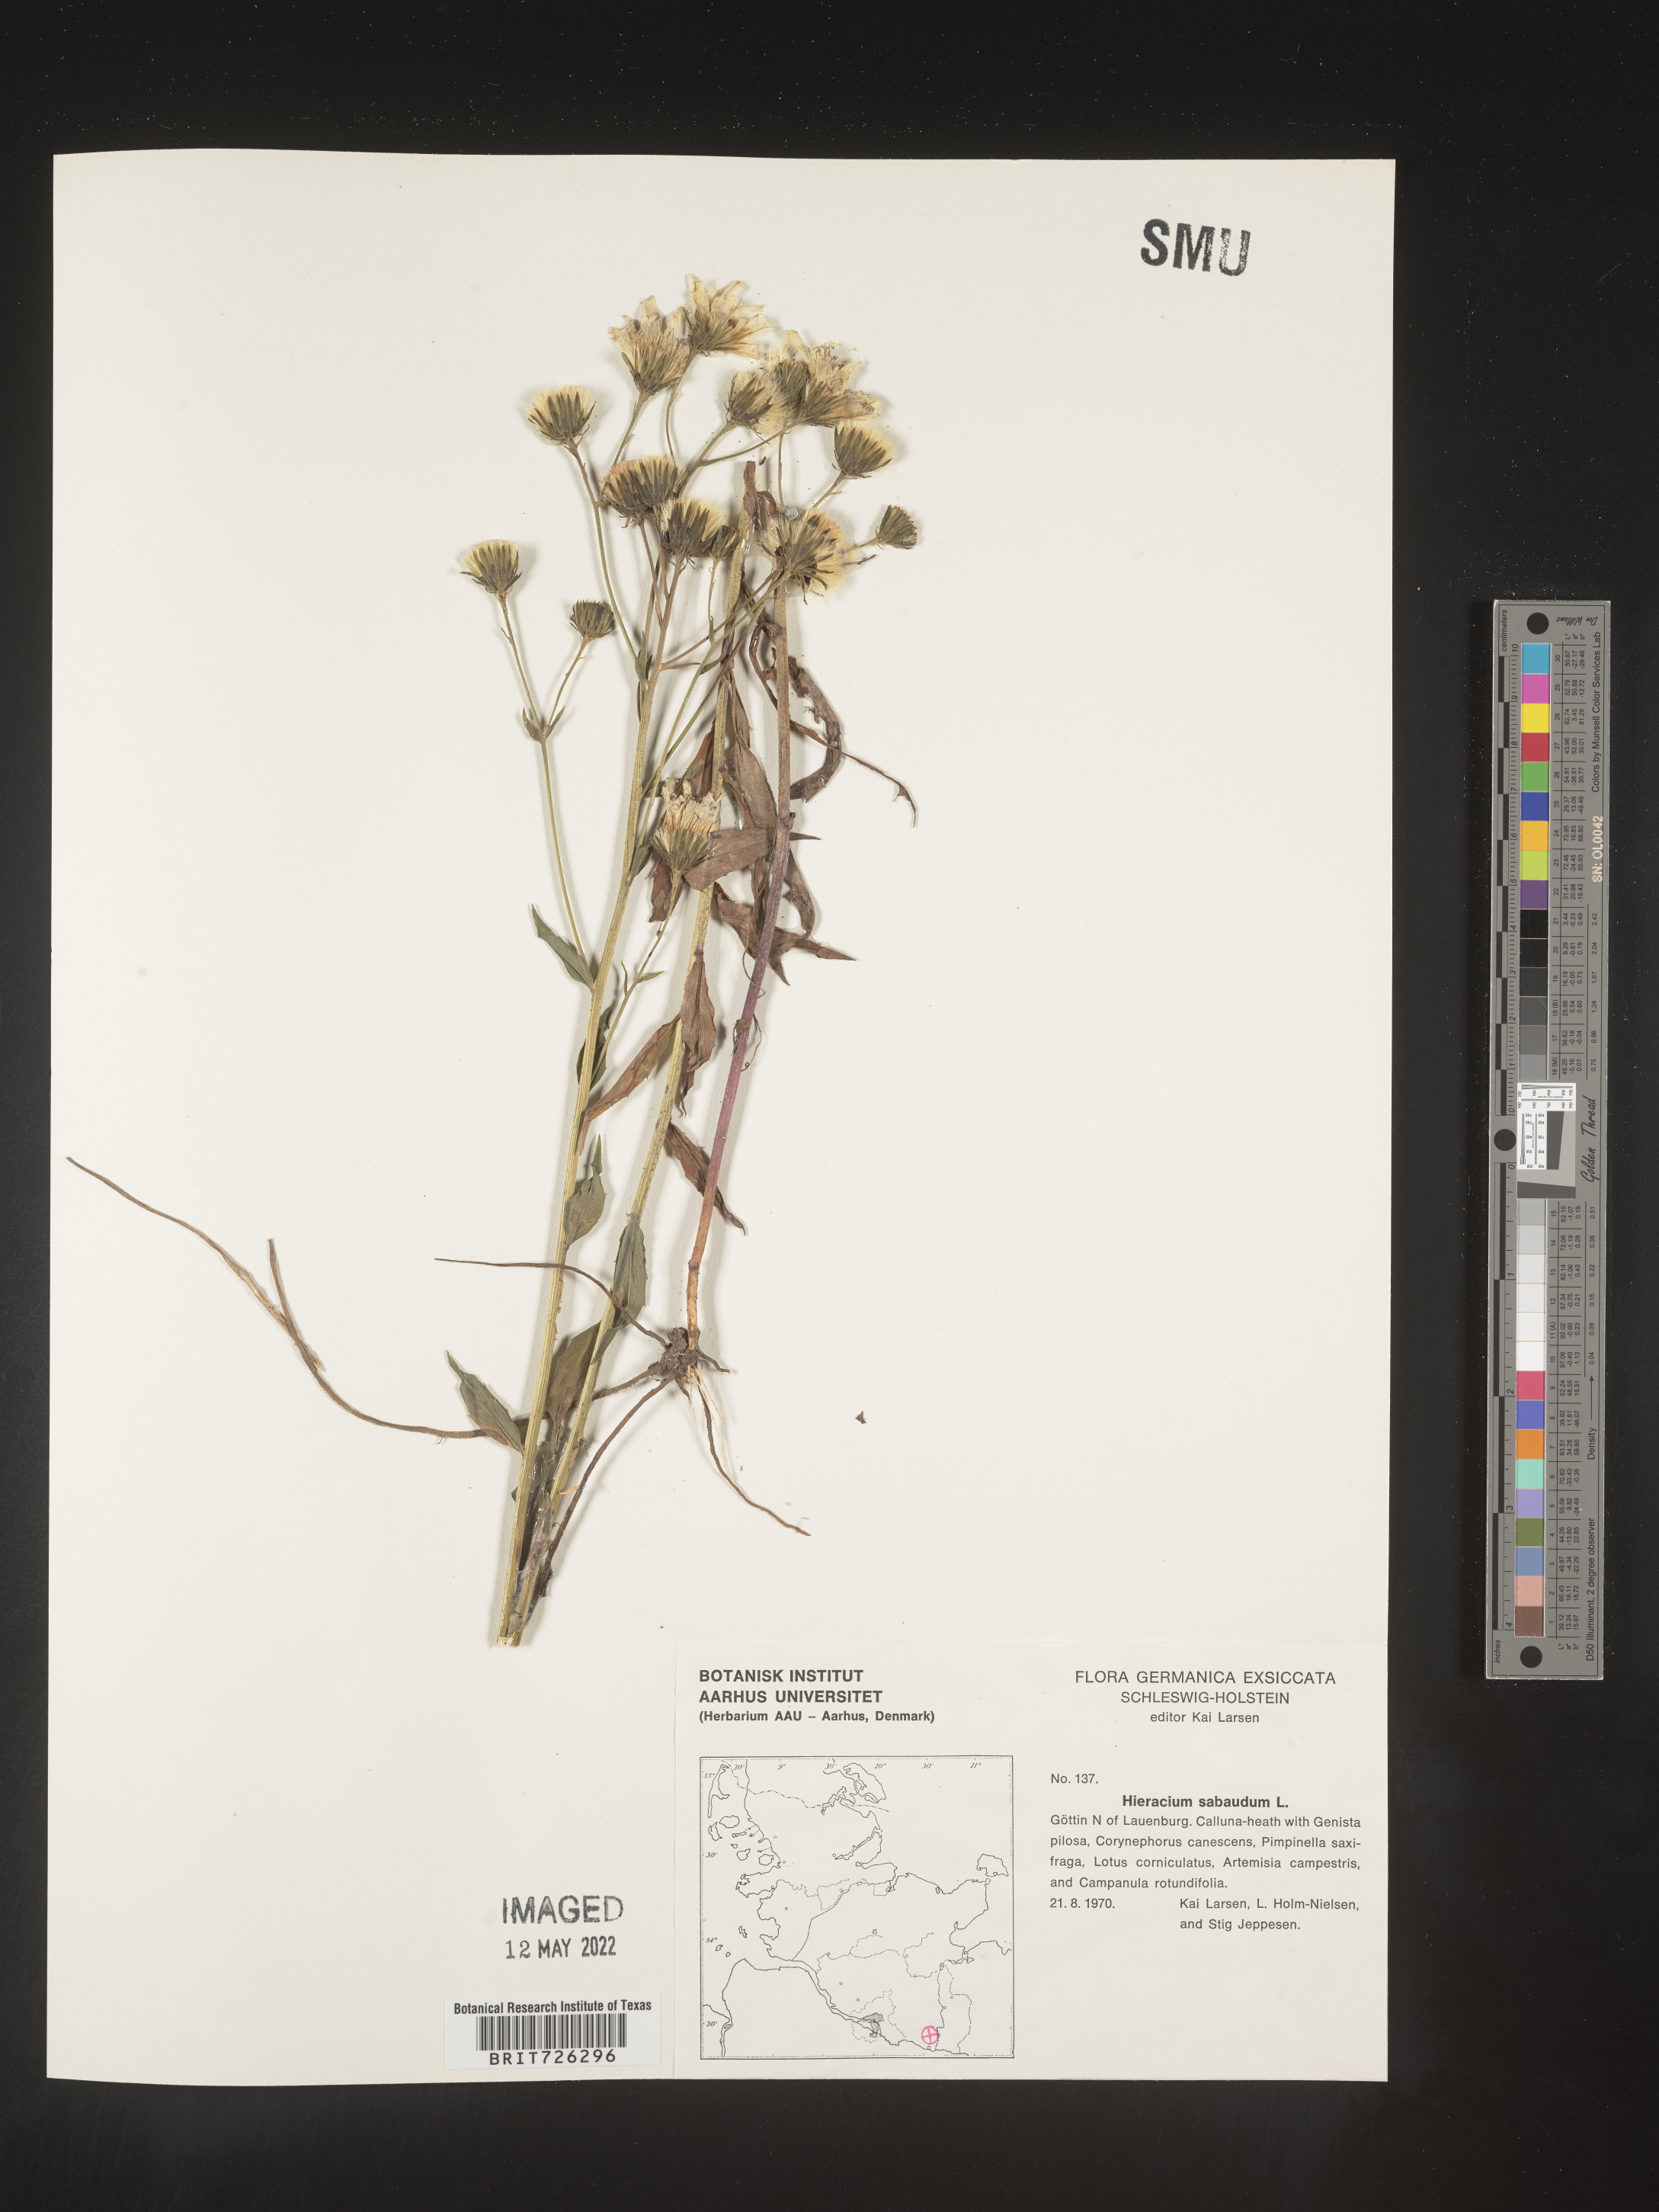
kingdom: Plantae
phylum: Tracheophyta
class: Magnoliopsida
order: Asterales
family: Asteraceae
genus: Hieracium
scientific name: Hieracium
